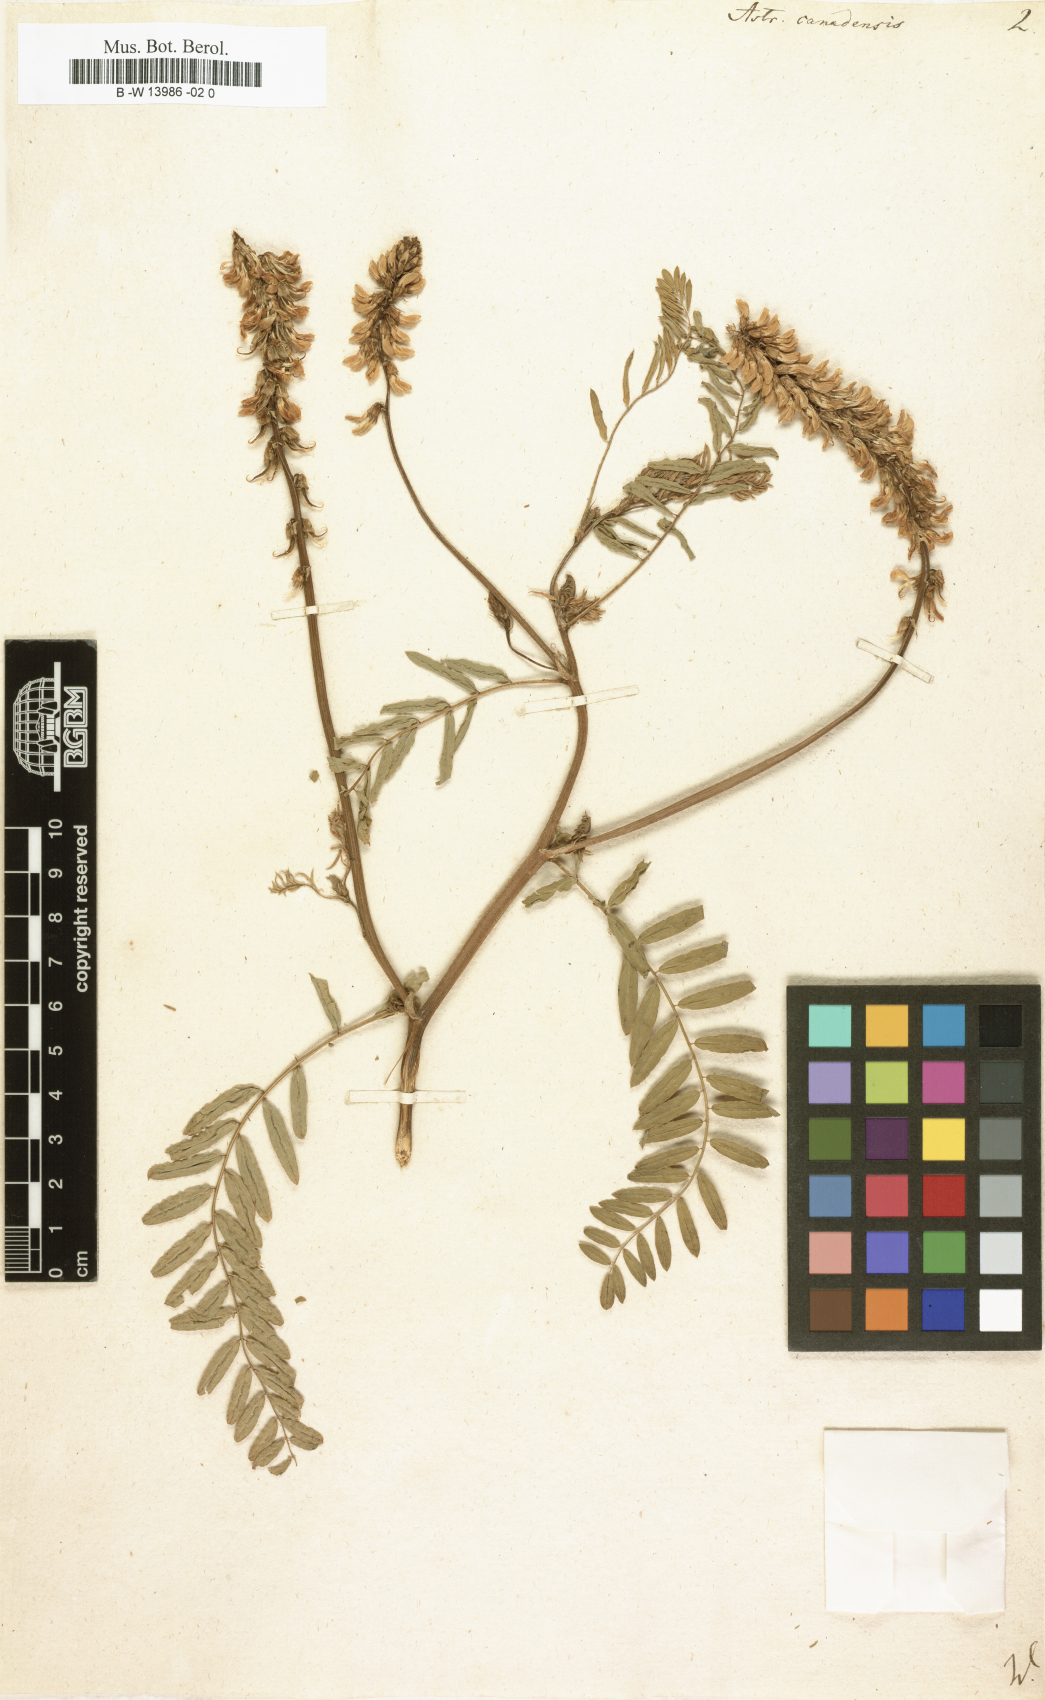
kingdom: Plantae
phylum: Tracheophyta
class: Magnoliopsida
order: Fabales
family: Fabaceae
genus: Astragalus
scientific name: Astragalus canadensis
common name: Canada milk-vetch
